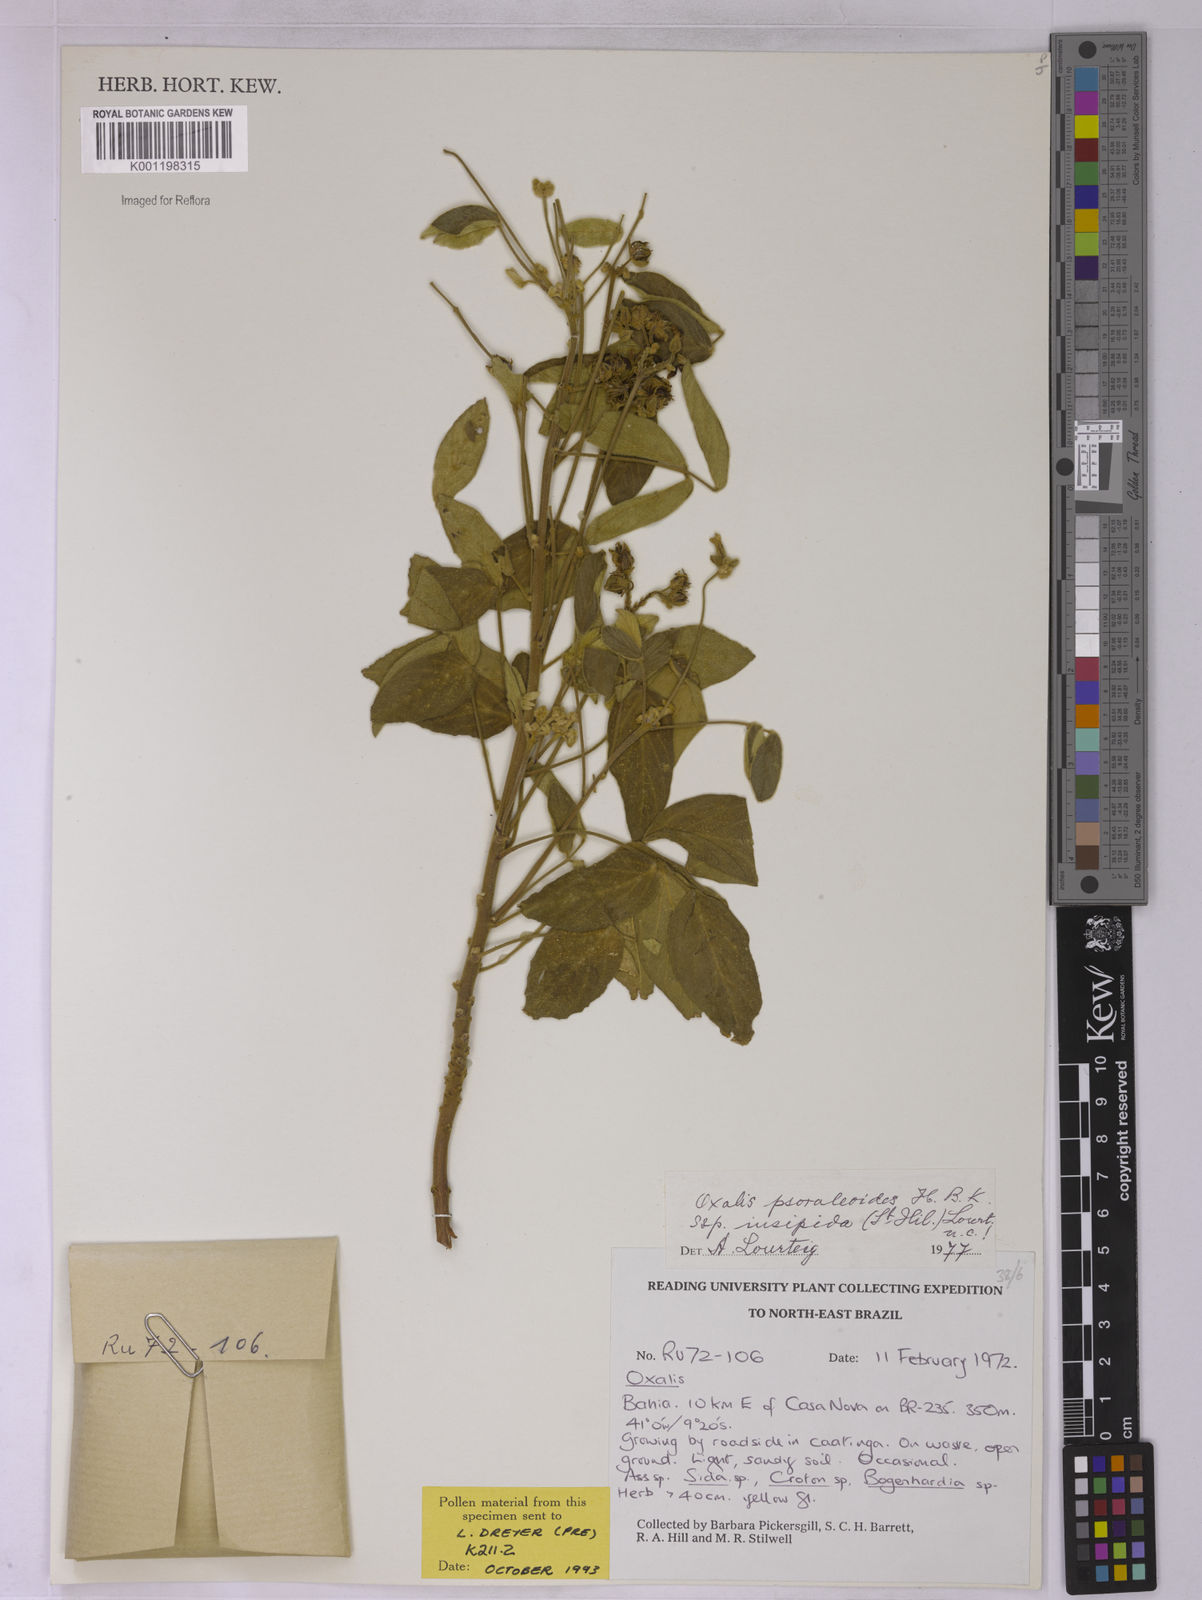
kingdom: Plantae
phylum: Tracheophyta
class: Magnoliopsida
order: Oxalidales
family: Oxalidaceae
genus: Oxalis
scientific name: Oxalis psoraleoides
